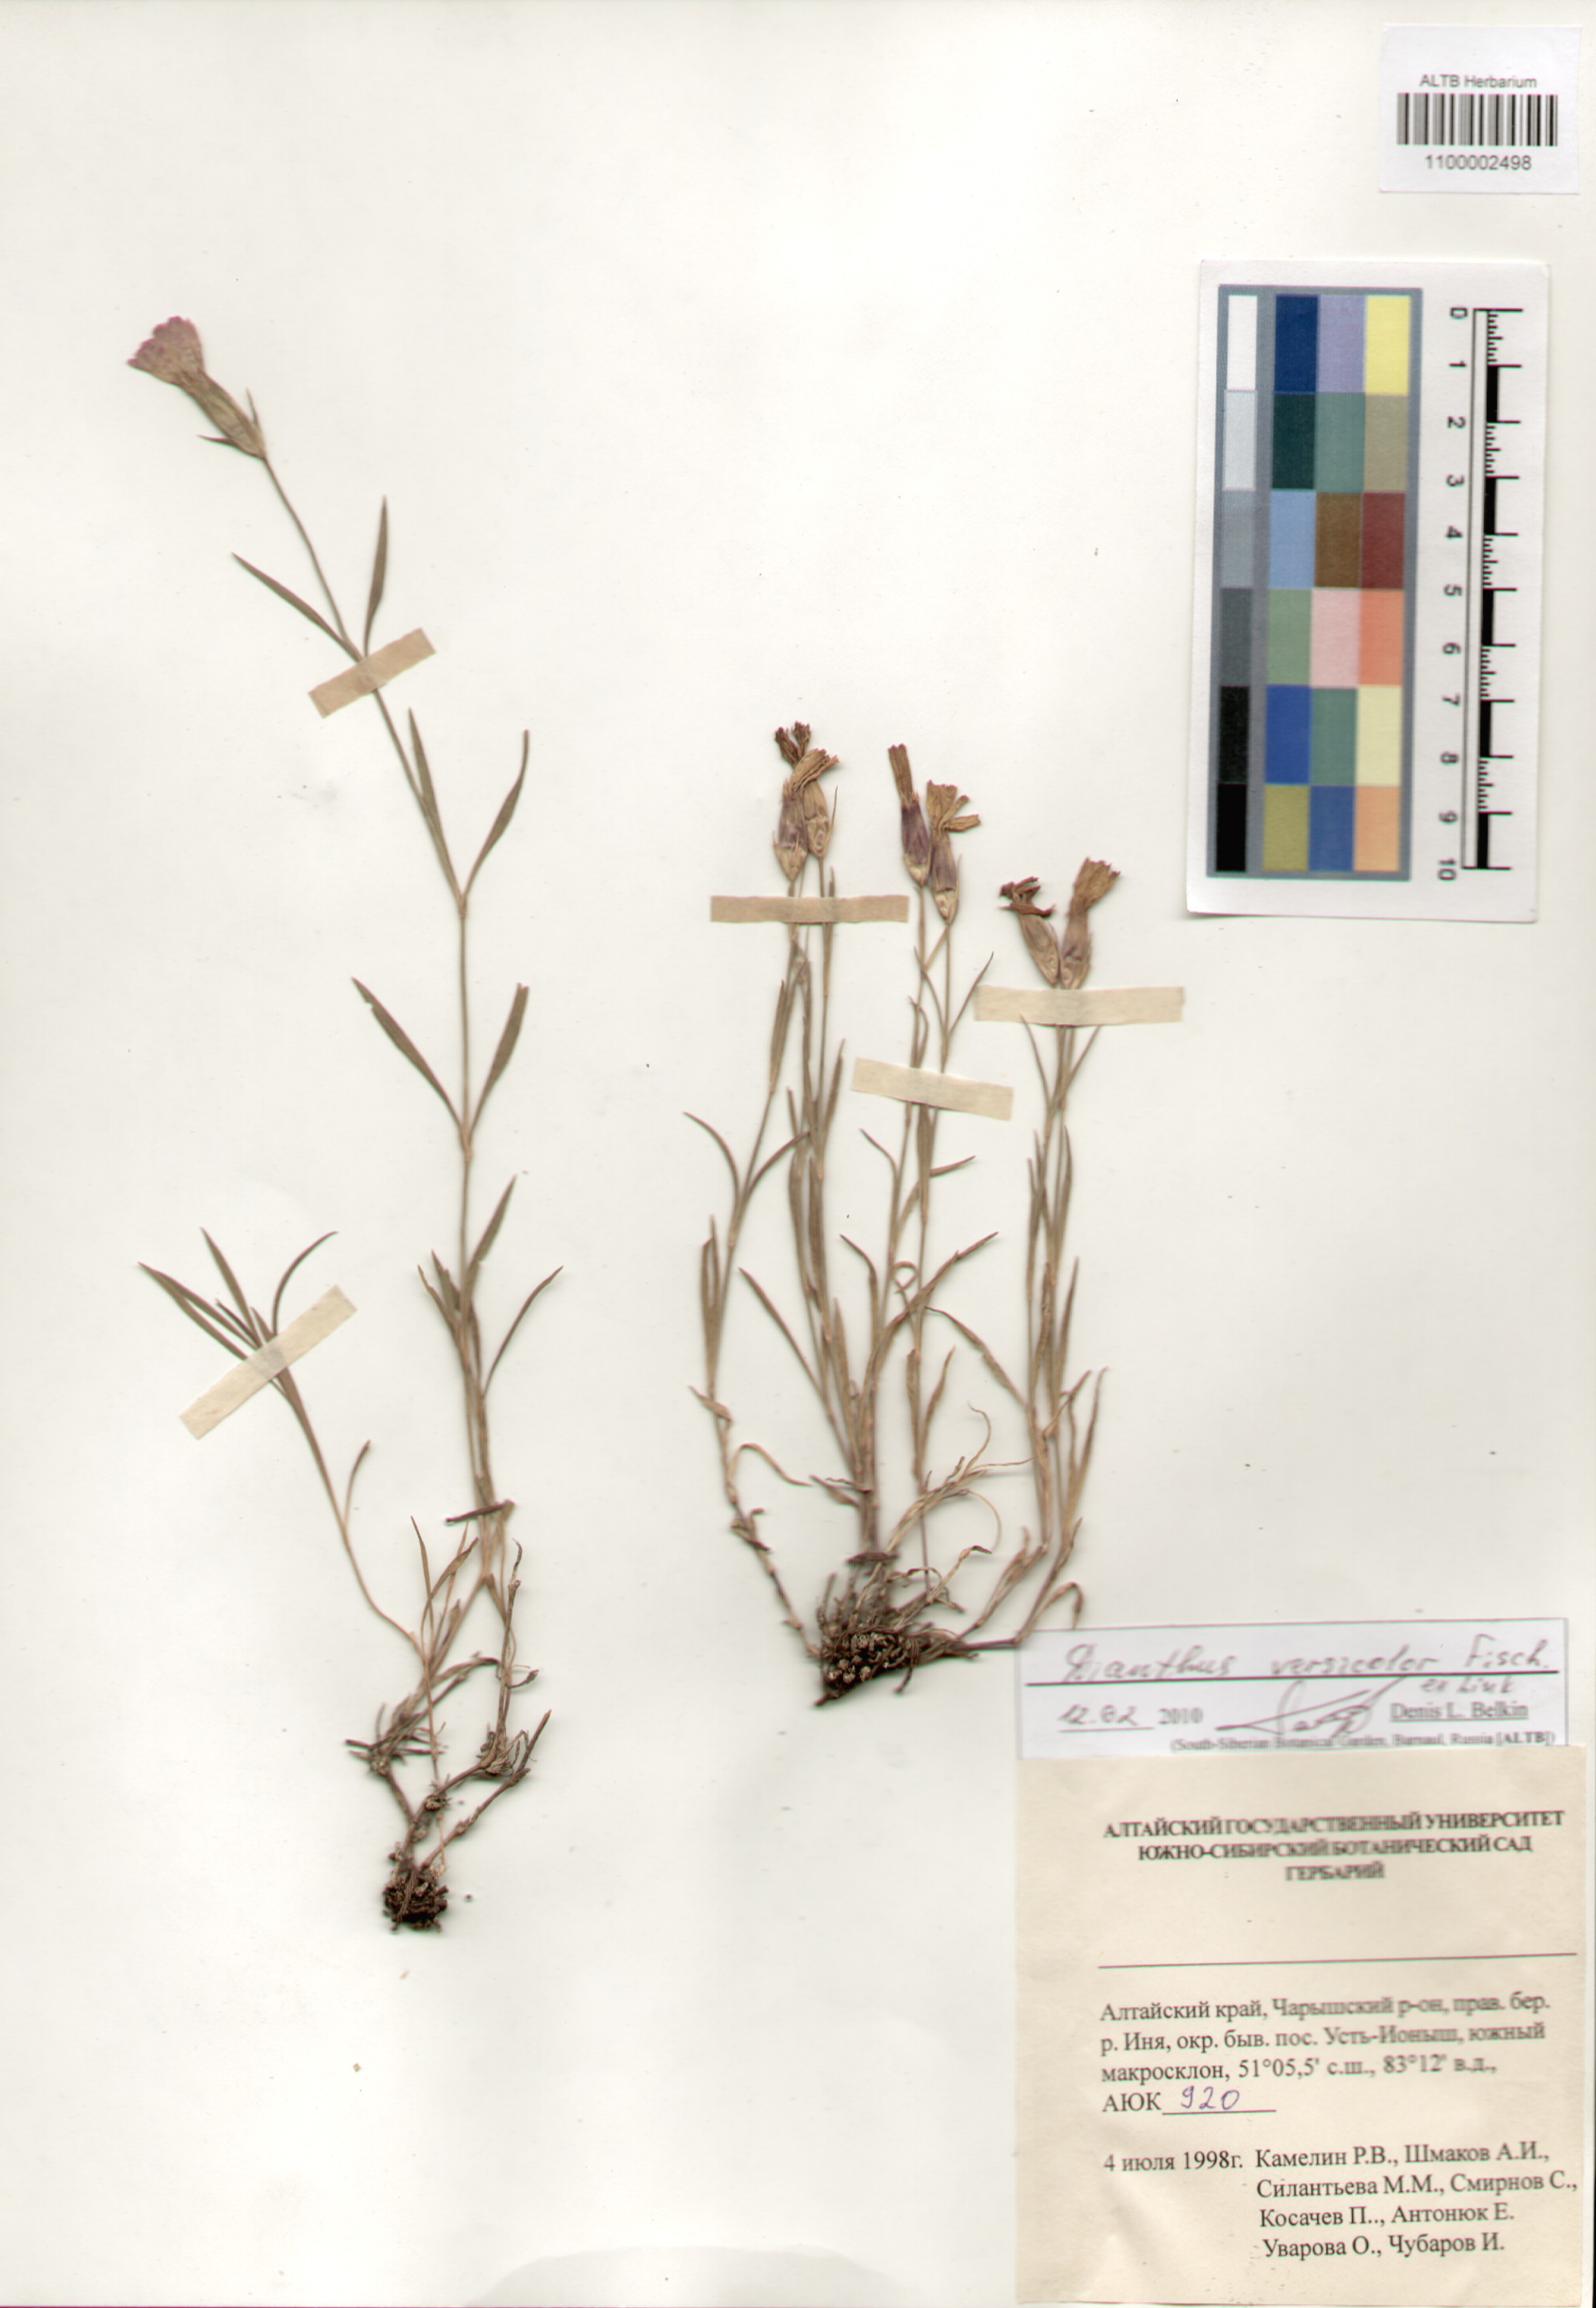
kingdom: Plantae
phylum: Tracheophyta
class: Magnoliopsida
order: Caryophyllales
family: Caryophyllaceae
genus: Dianthus
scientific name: Dianthus chinensis
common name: Rainbow pink
